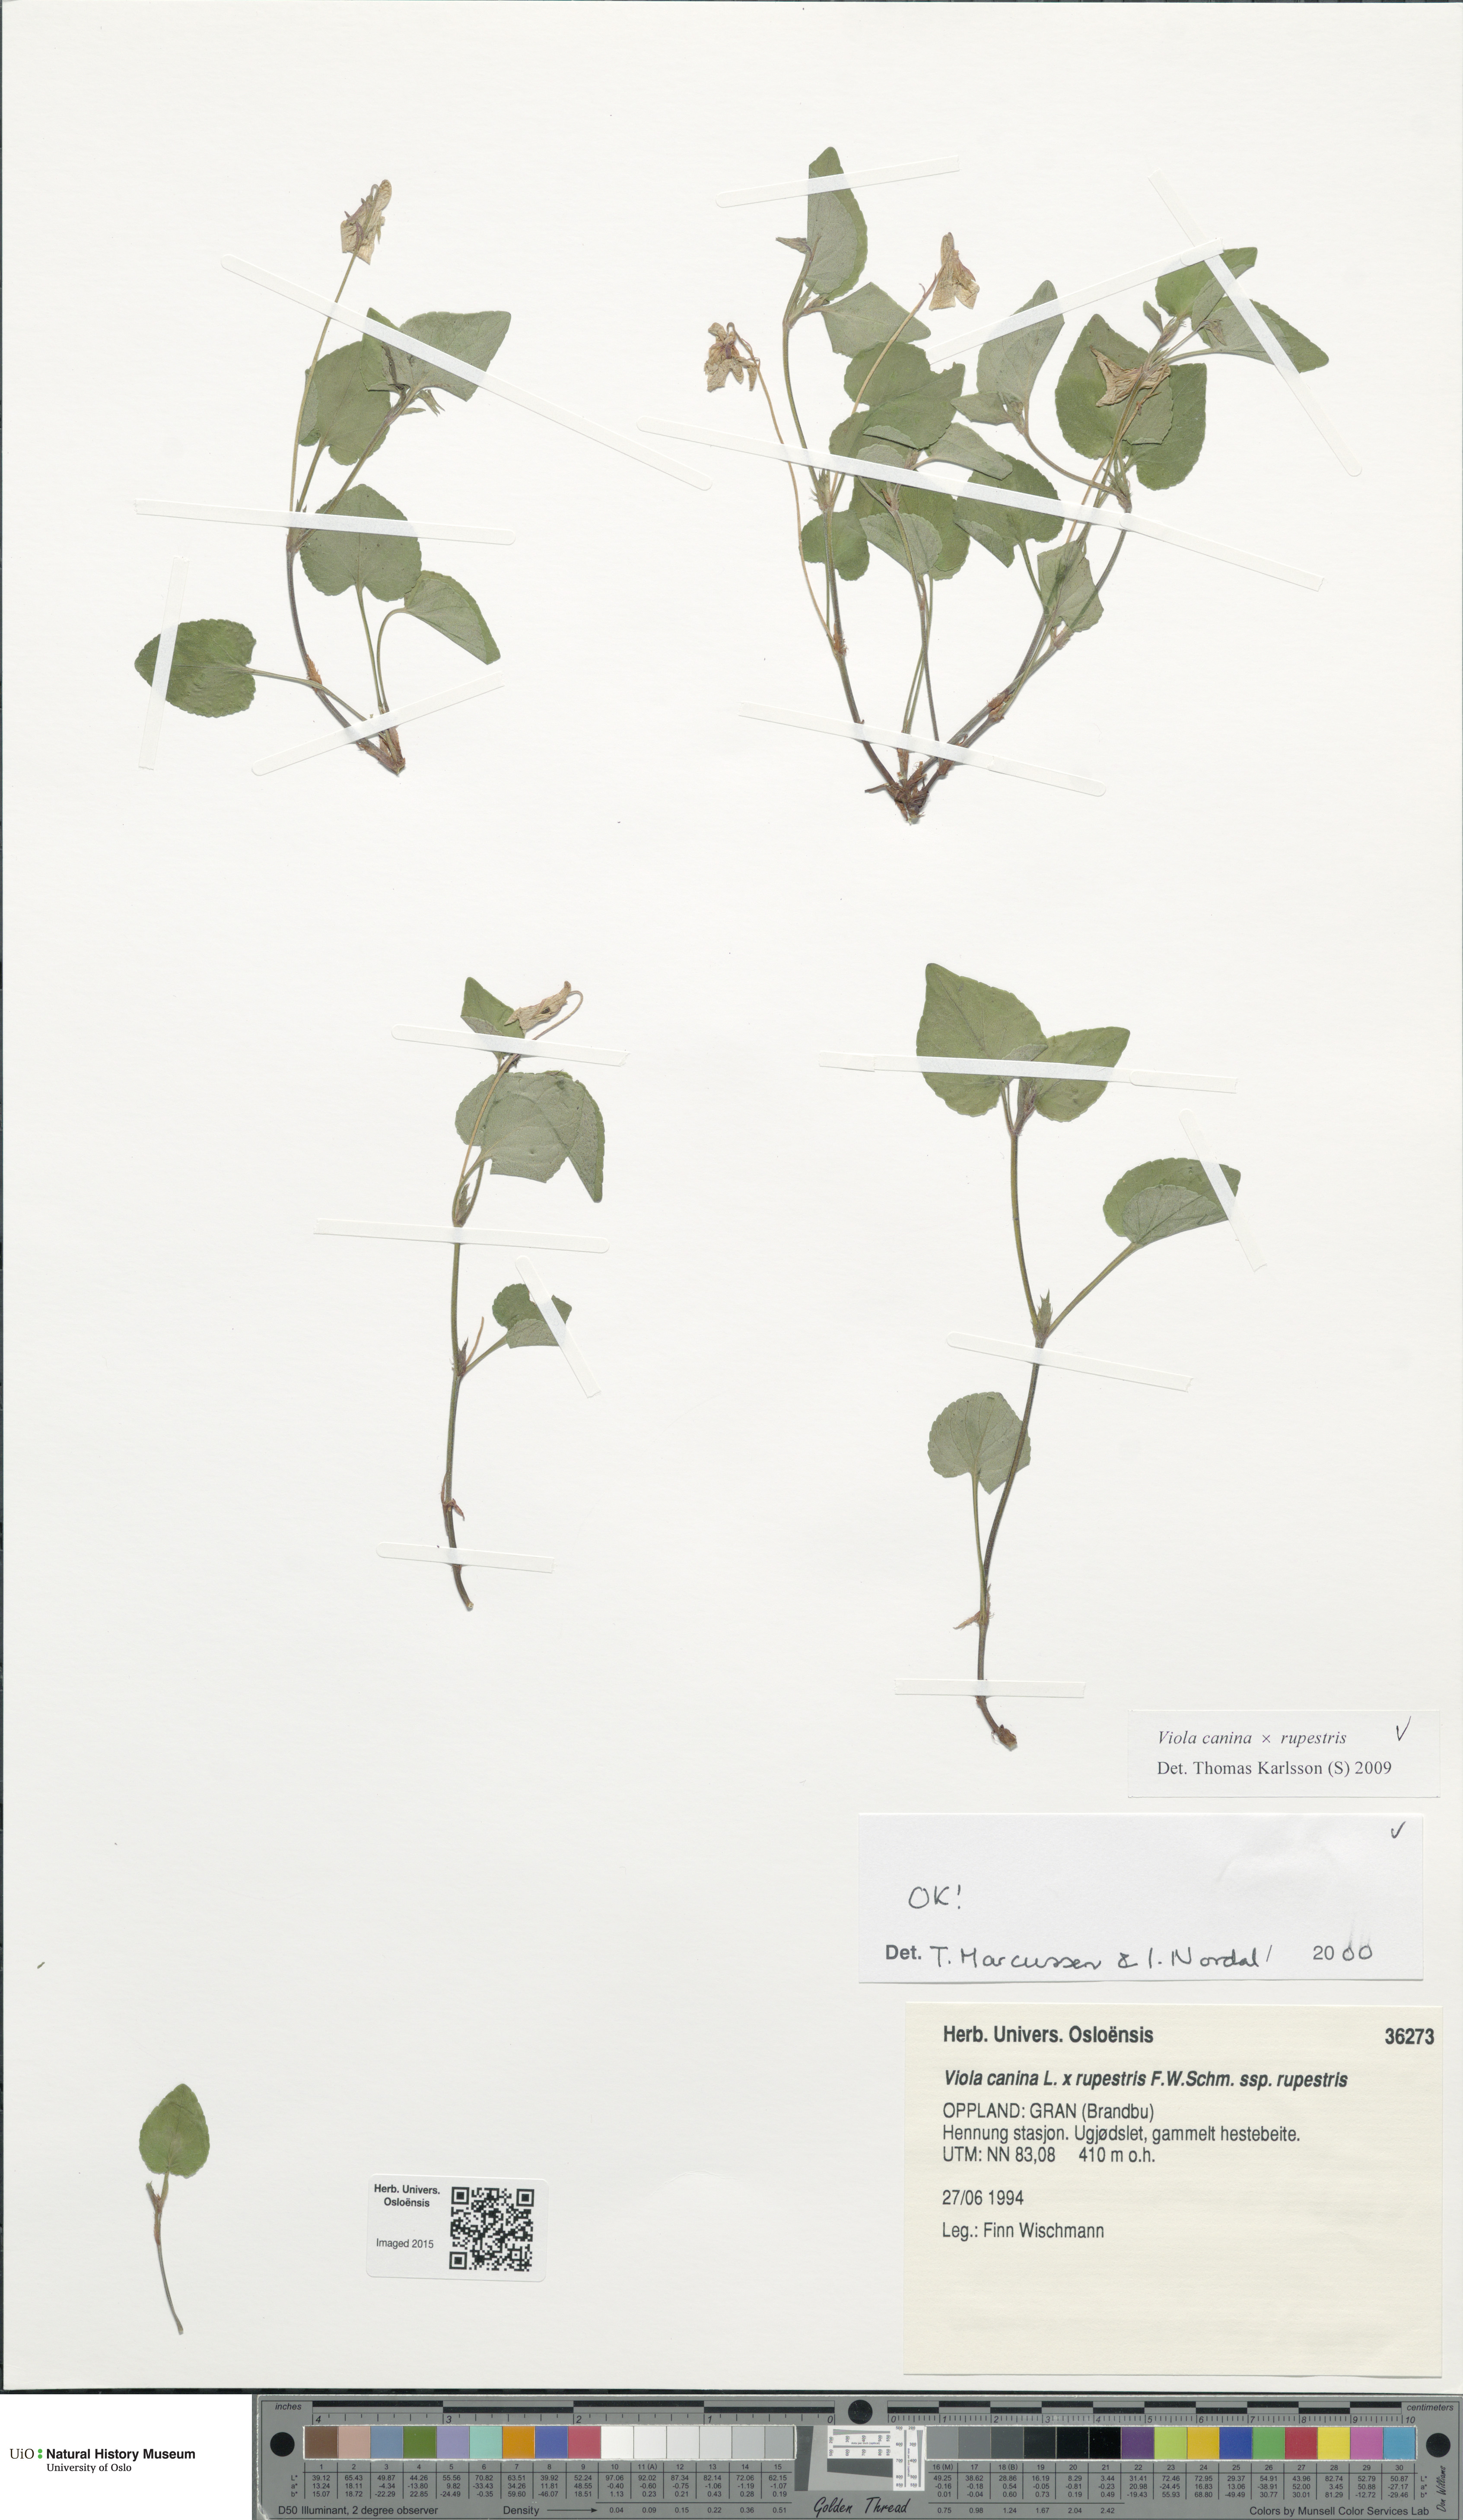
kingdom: Plantae
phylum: Tracheophyta
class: Magnoliopsida
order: Malpighiales
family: Violaceae
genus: Viola
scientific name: Viola
